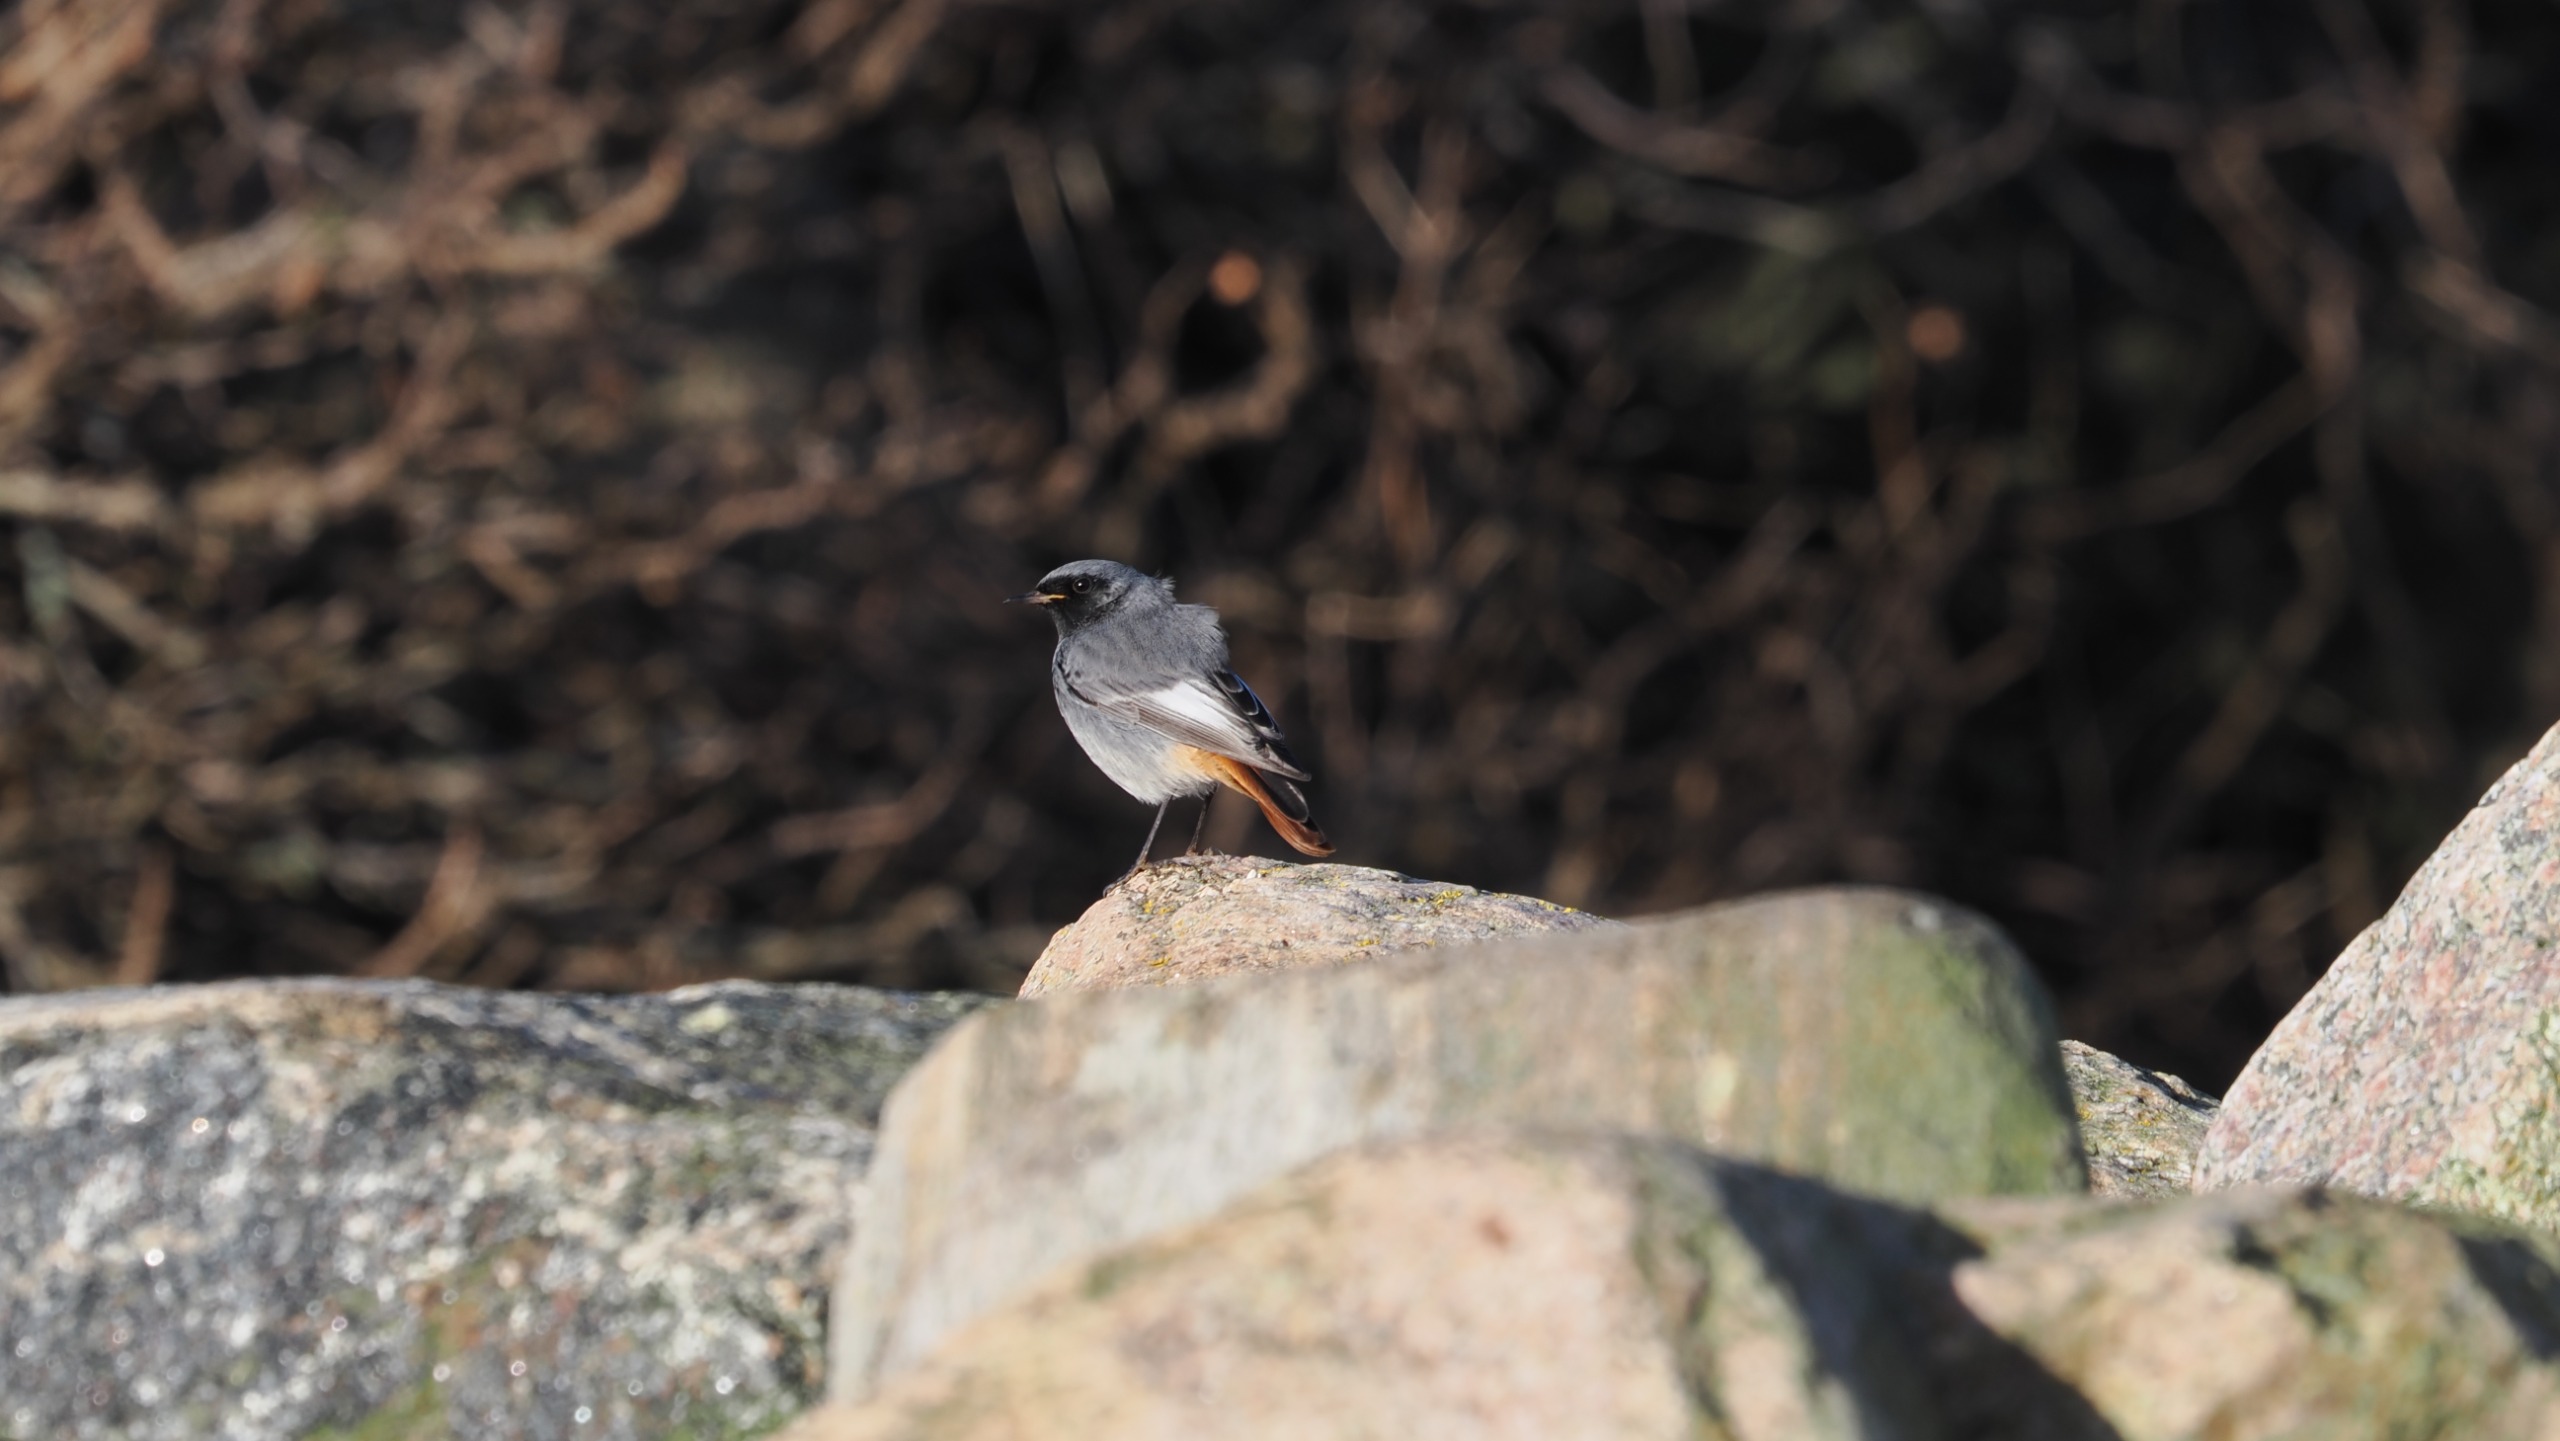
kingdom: Animalia
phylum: Chordata
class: Aves
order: Passeriformes
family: Muscicapidae
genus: Phoenicurus
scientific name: Phoenicurus ochruros
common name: Husrødstjert
